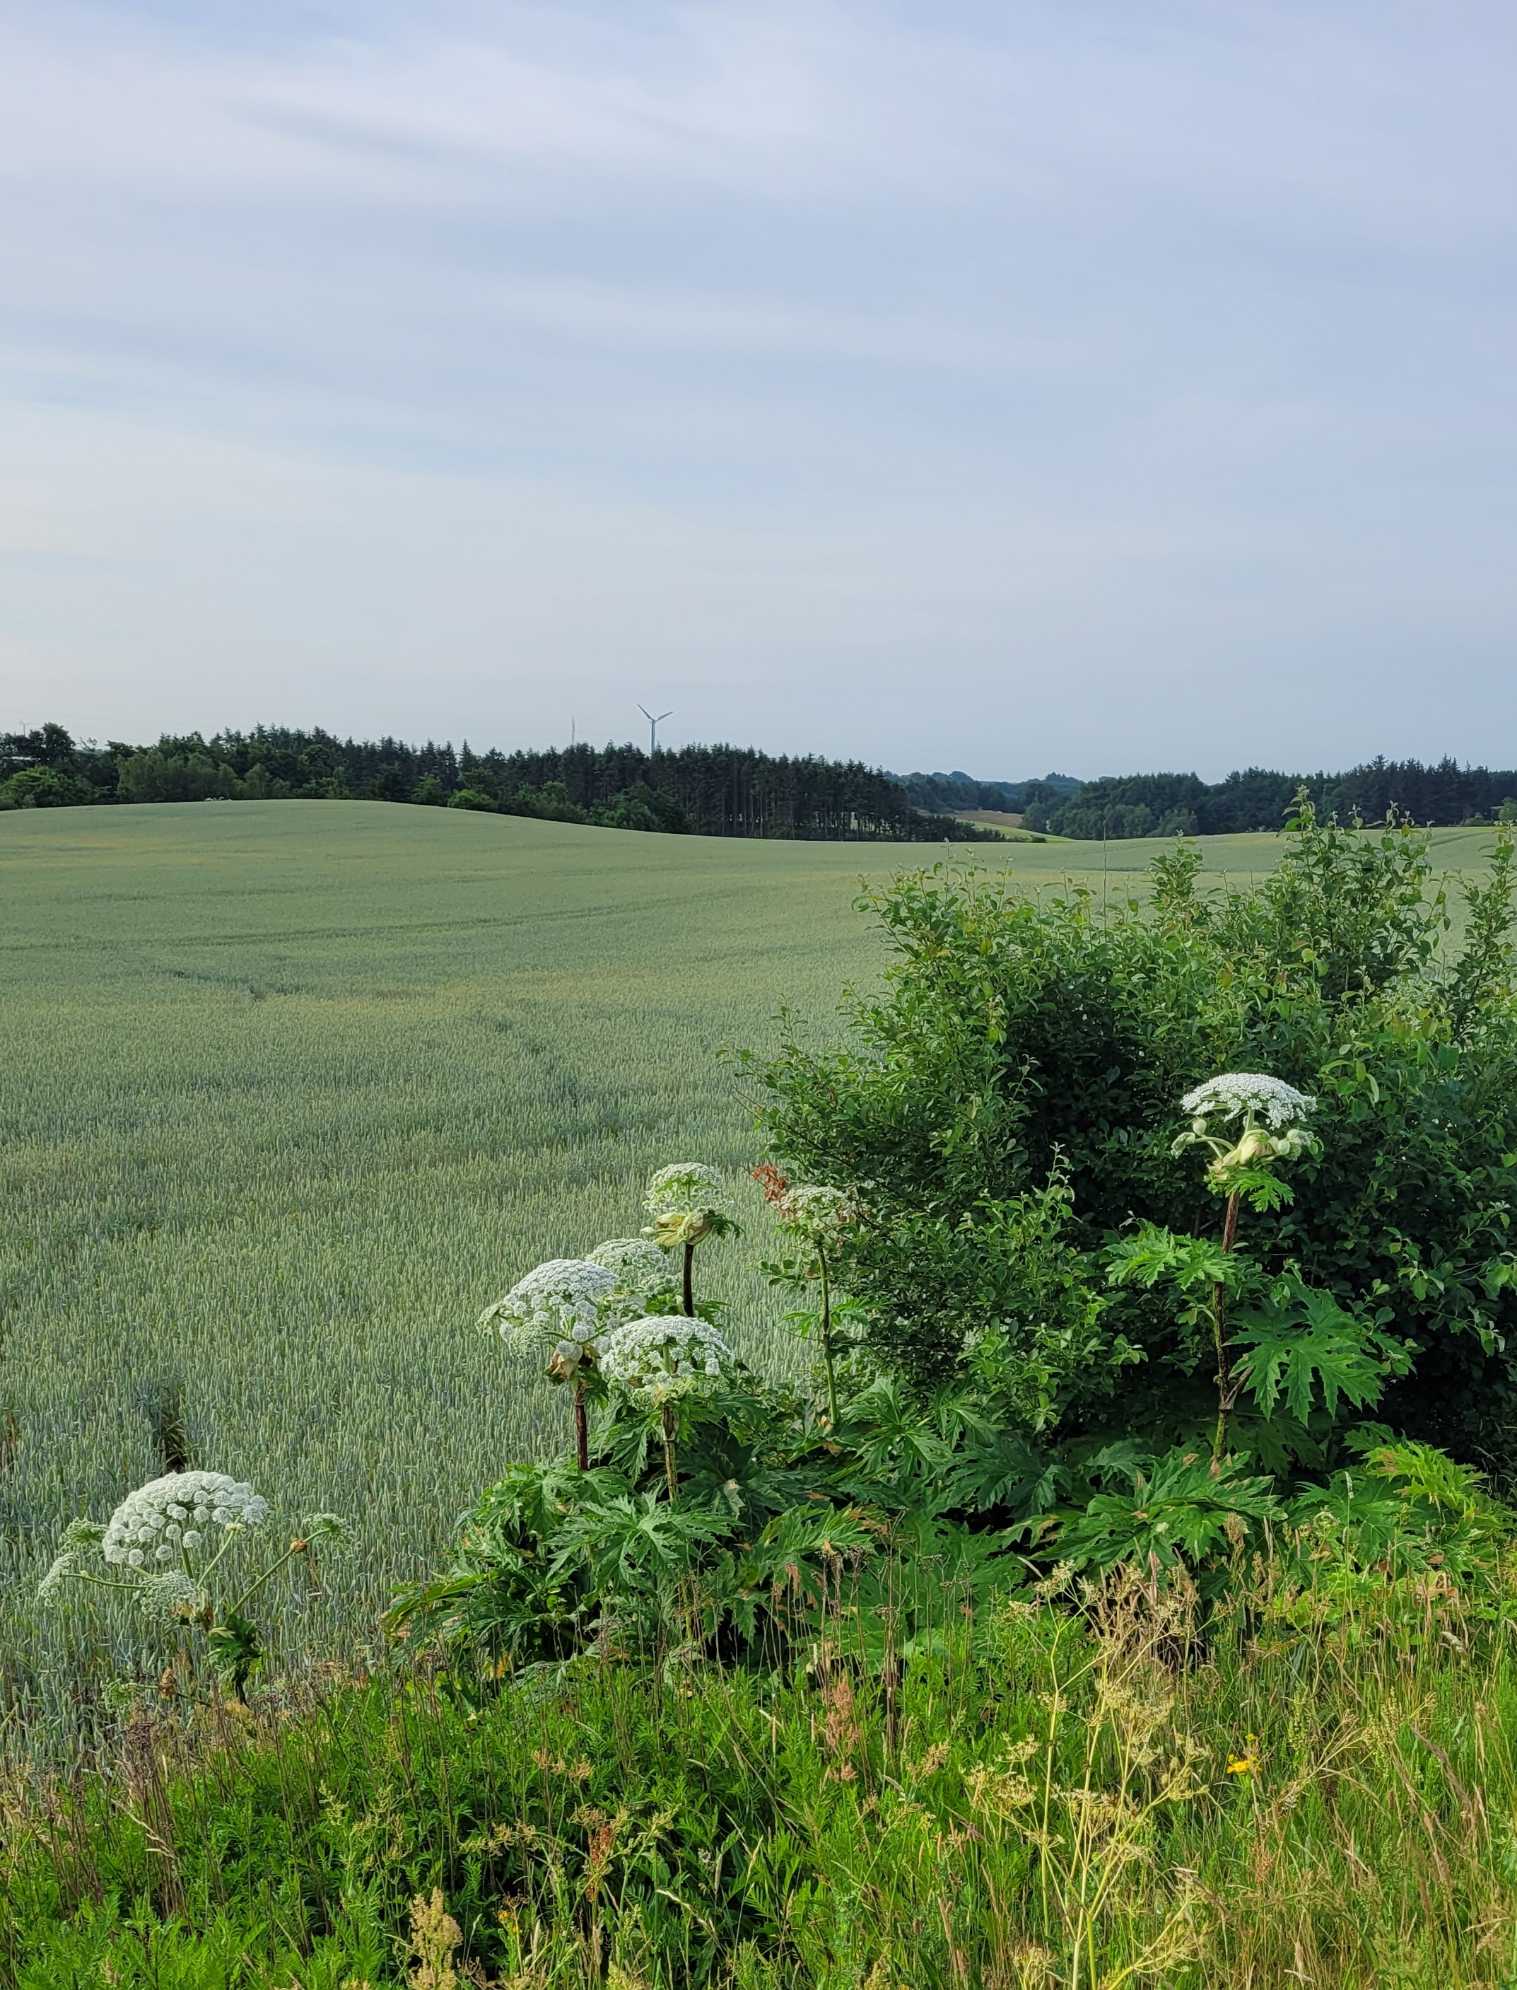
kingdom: Plantae
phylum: Tracheophyta
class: Magnoliopsida
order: Apiales
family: Apiaceae
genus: Heracleum
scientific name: Heracleum mantegazzianum
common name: Kæmpe-bjørneklo
